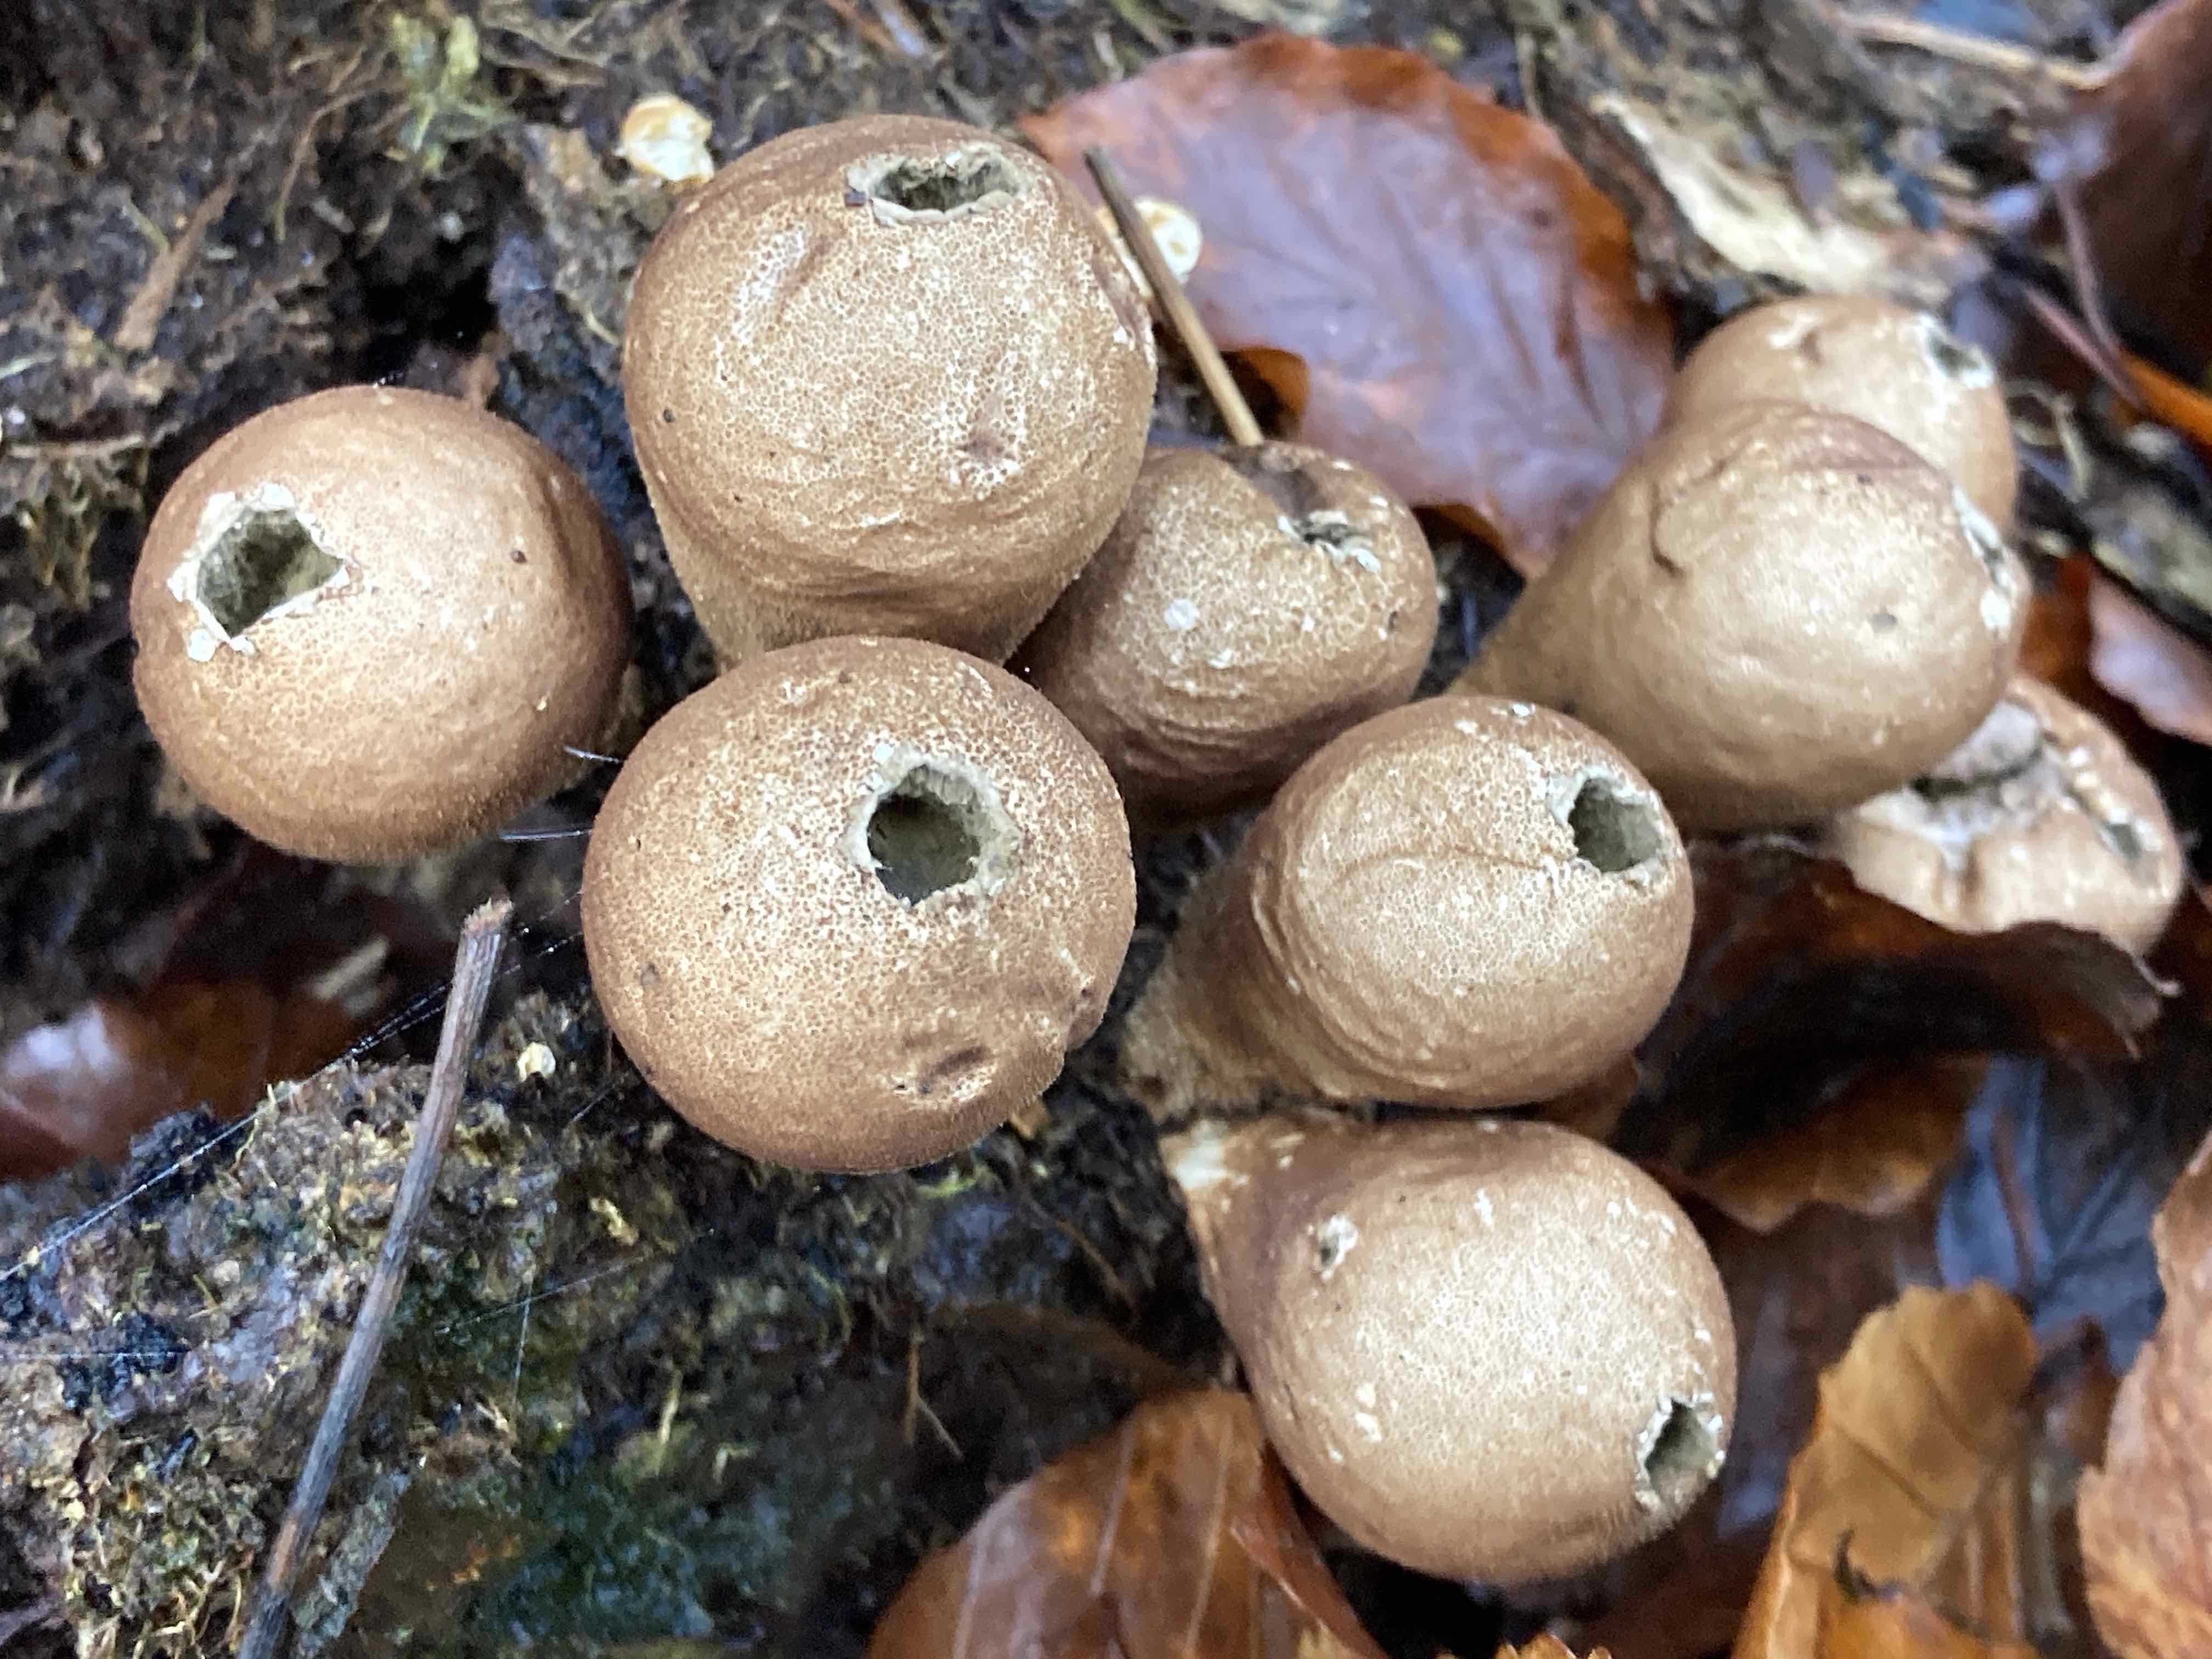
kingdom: Fungi
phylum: Basidiomycota
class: Agaricomycetes
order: Agaricales
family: Lycoperdaceae
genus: Apioperdon
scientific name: Apioperdon pyriforme
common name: pære-støvbold
